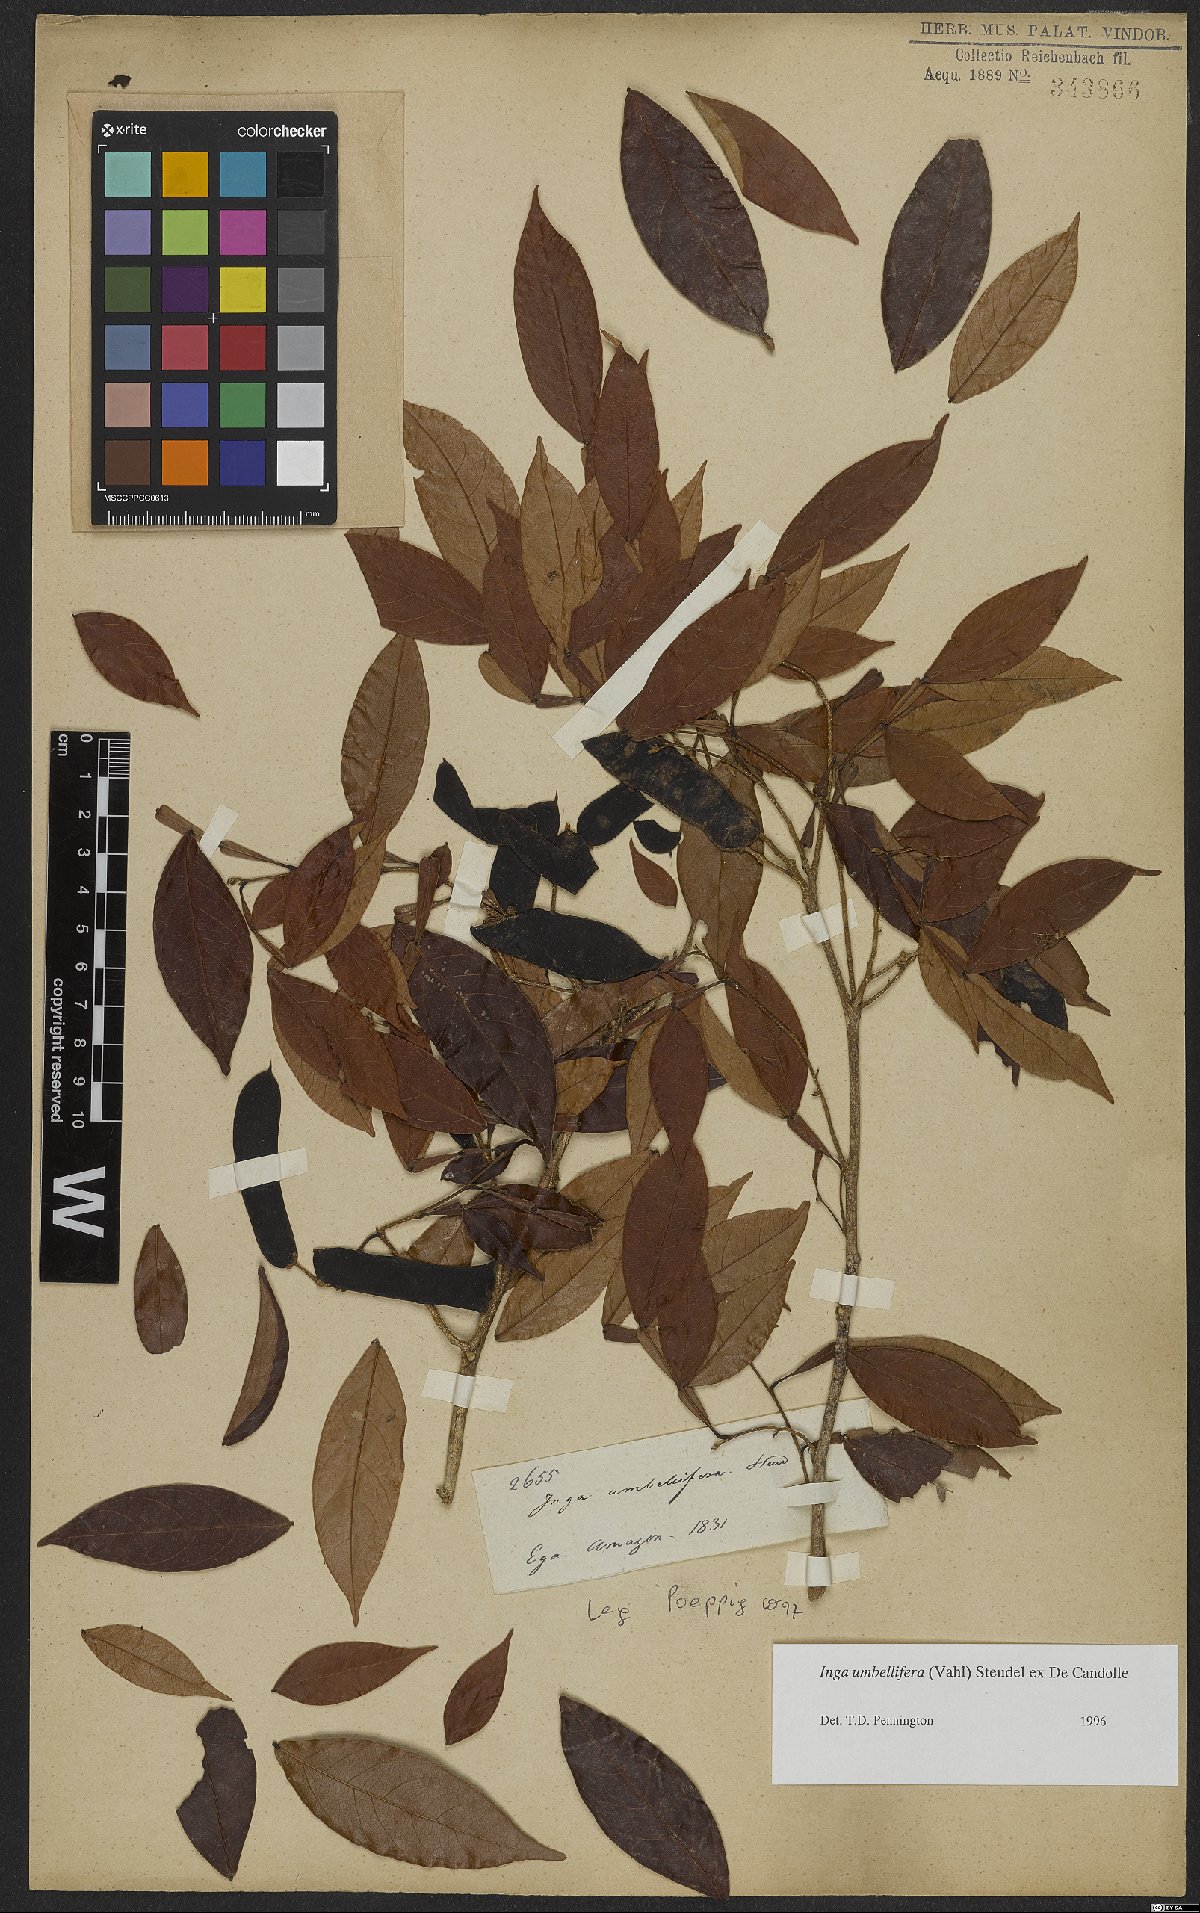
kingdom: Plantae
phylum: Tracheophyta
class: Magnoliopsida
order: Fabales
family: Fabaceae
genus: Inga
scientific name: Inga umbellifera
